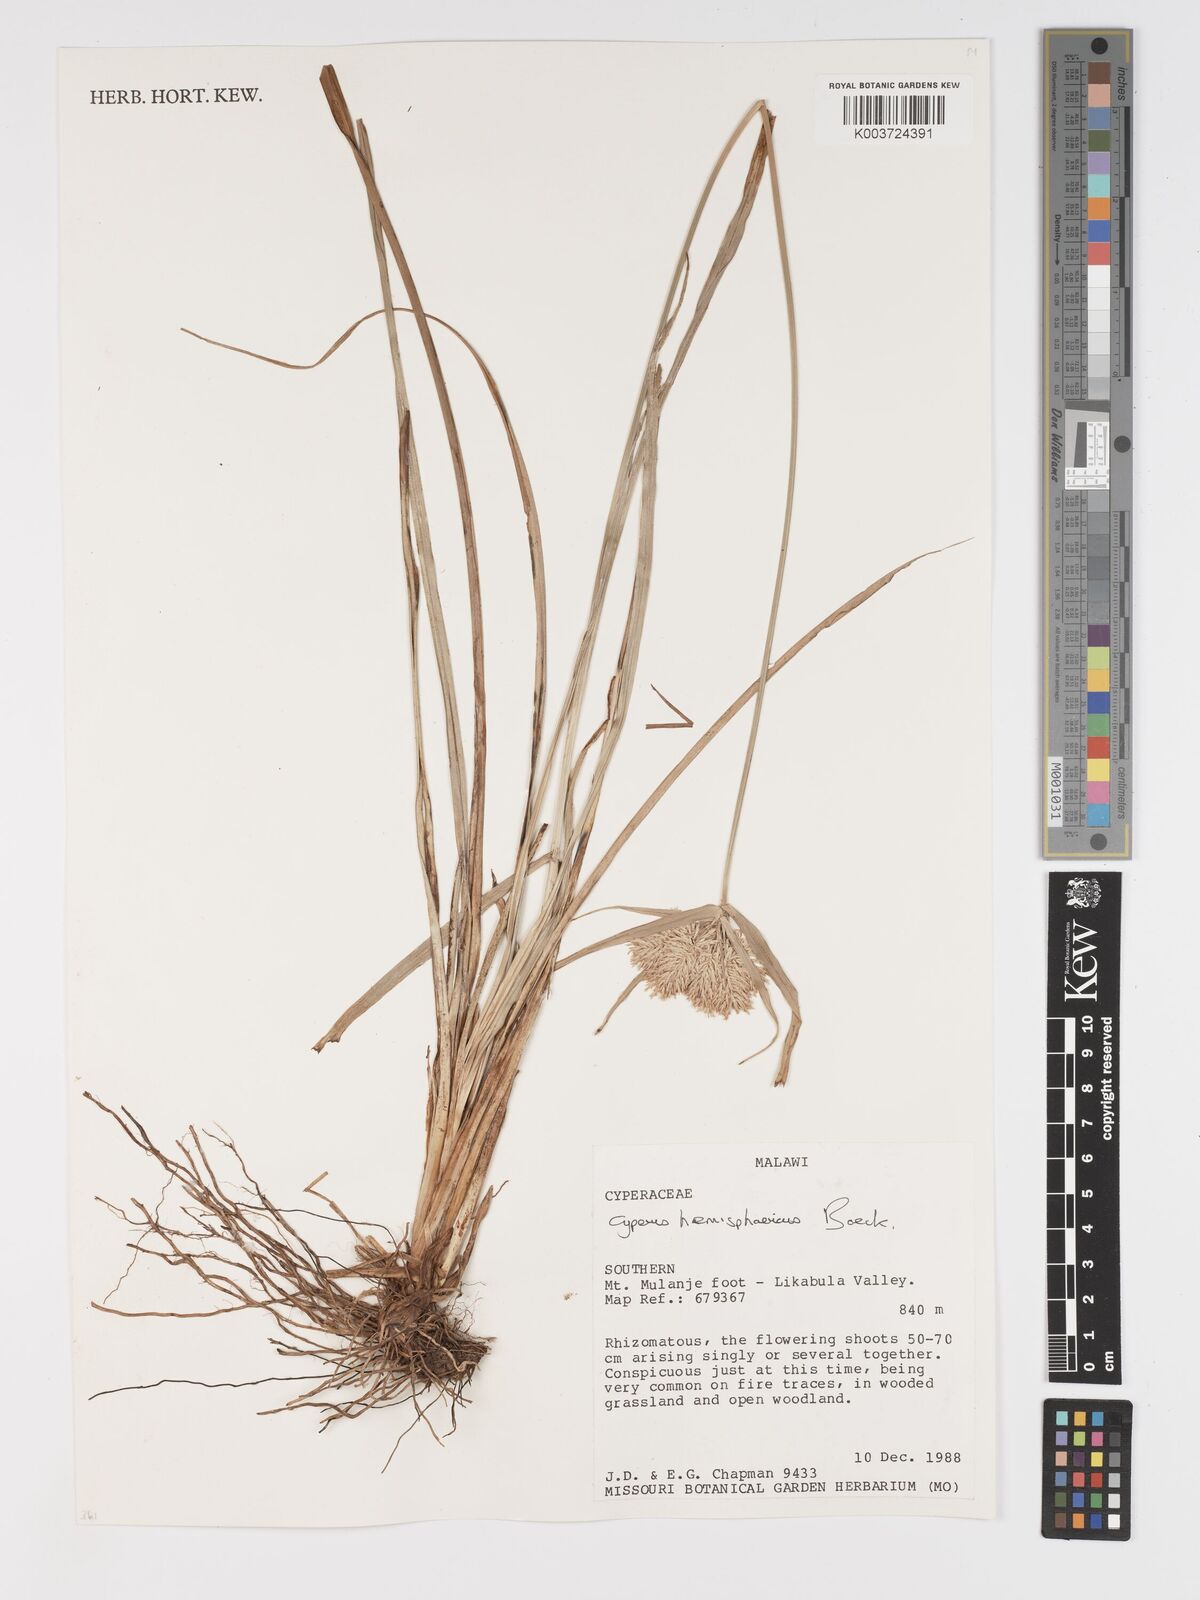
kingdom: Plantae
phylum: Tracheophyta
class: Liliopsida
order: Poales
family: Cyperaceae
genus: Cyperus
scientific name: Cyperus hemisphaericus
